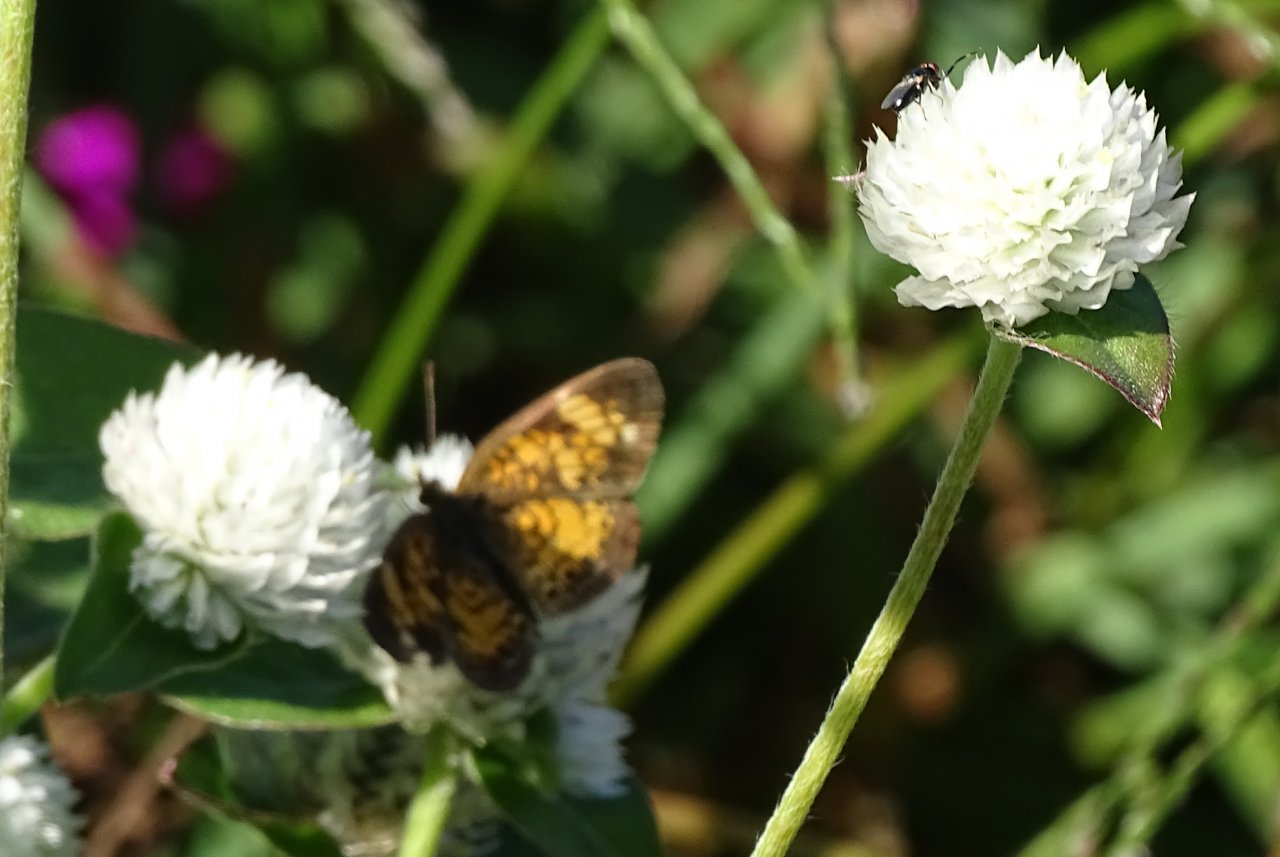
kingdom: Animalia
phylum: Arthropoda
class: Insecta
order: Lepidoptera
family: Nymphalidae
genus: Phyciodes
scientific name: Phyciodes
